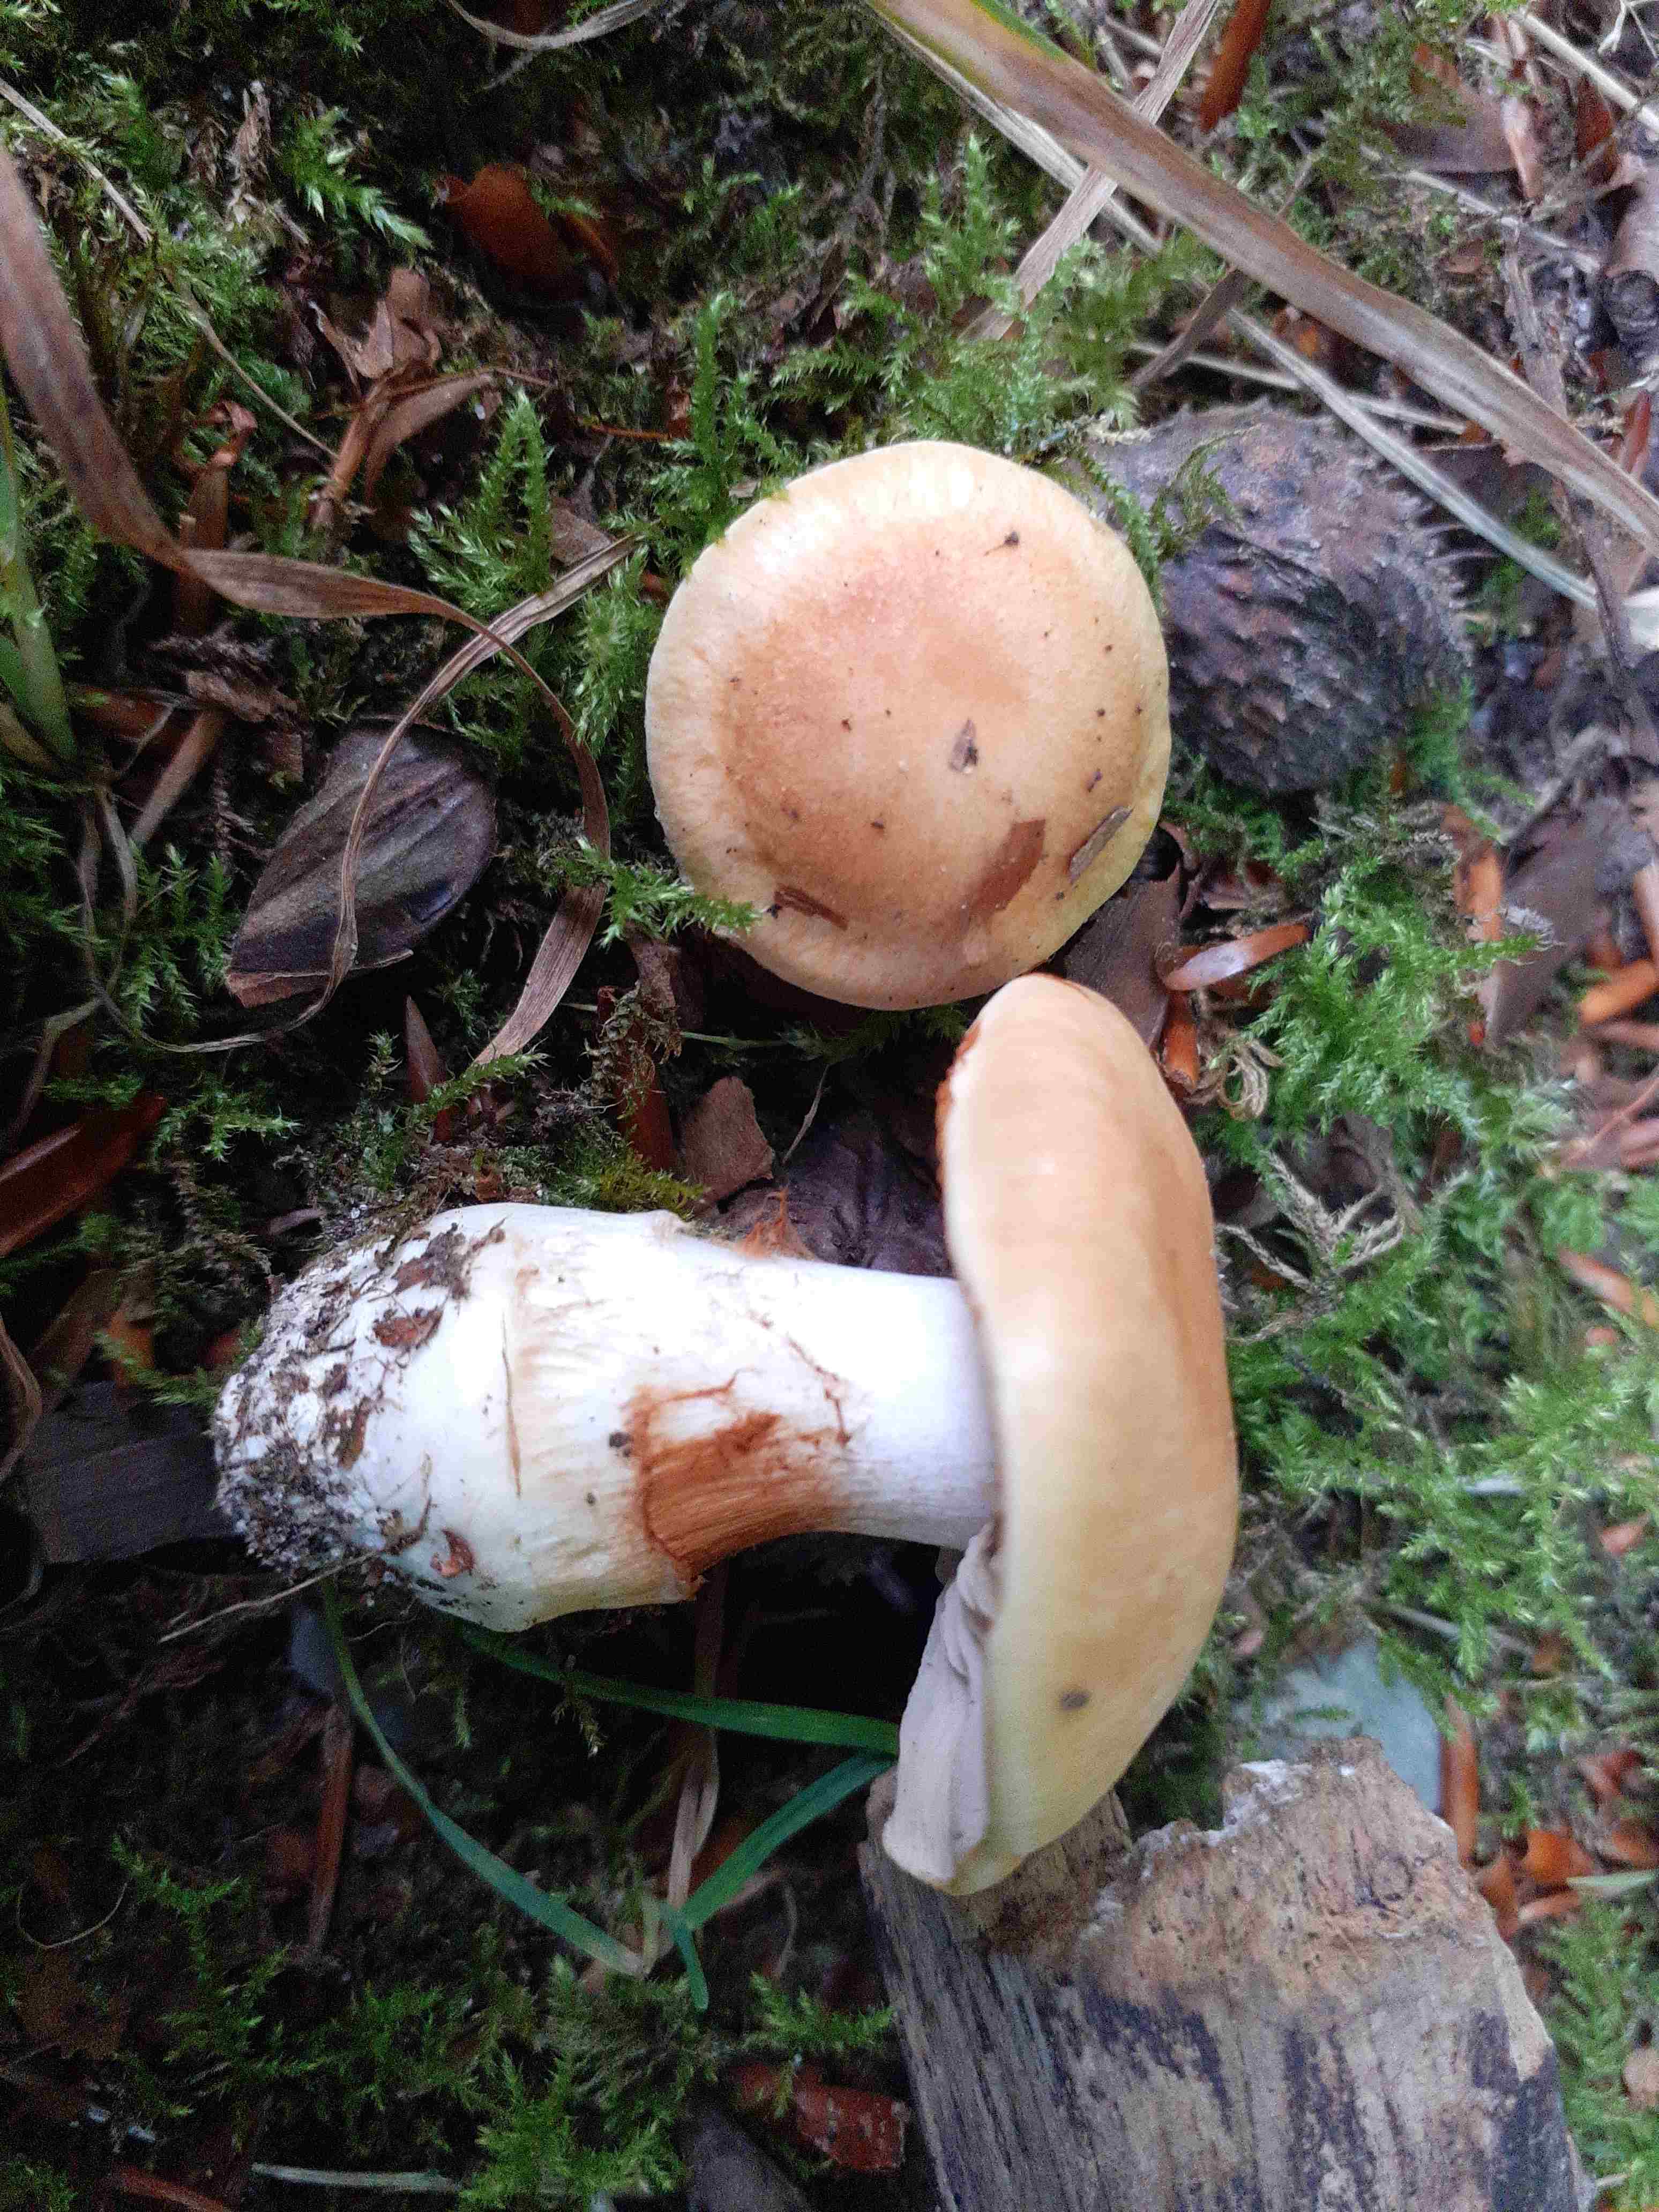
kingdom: Fungi
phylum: Basidiomycota
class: Agaricomycetes
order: Agaricales
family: Cortinariaceae
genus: Thaxterogaster
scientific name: Thaxterogaster emollitus
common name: besk slørhat
